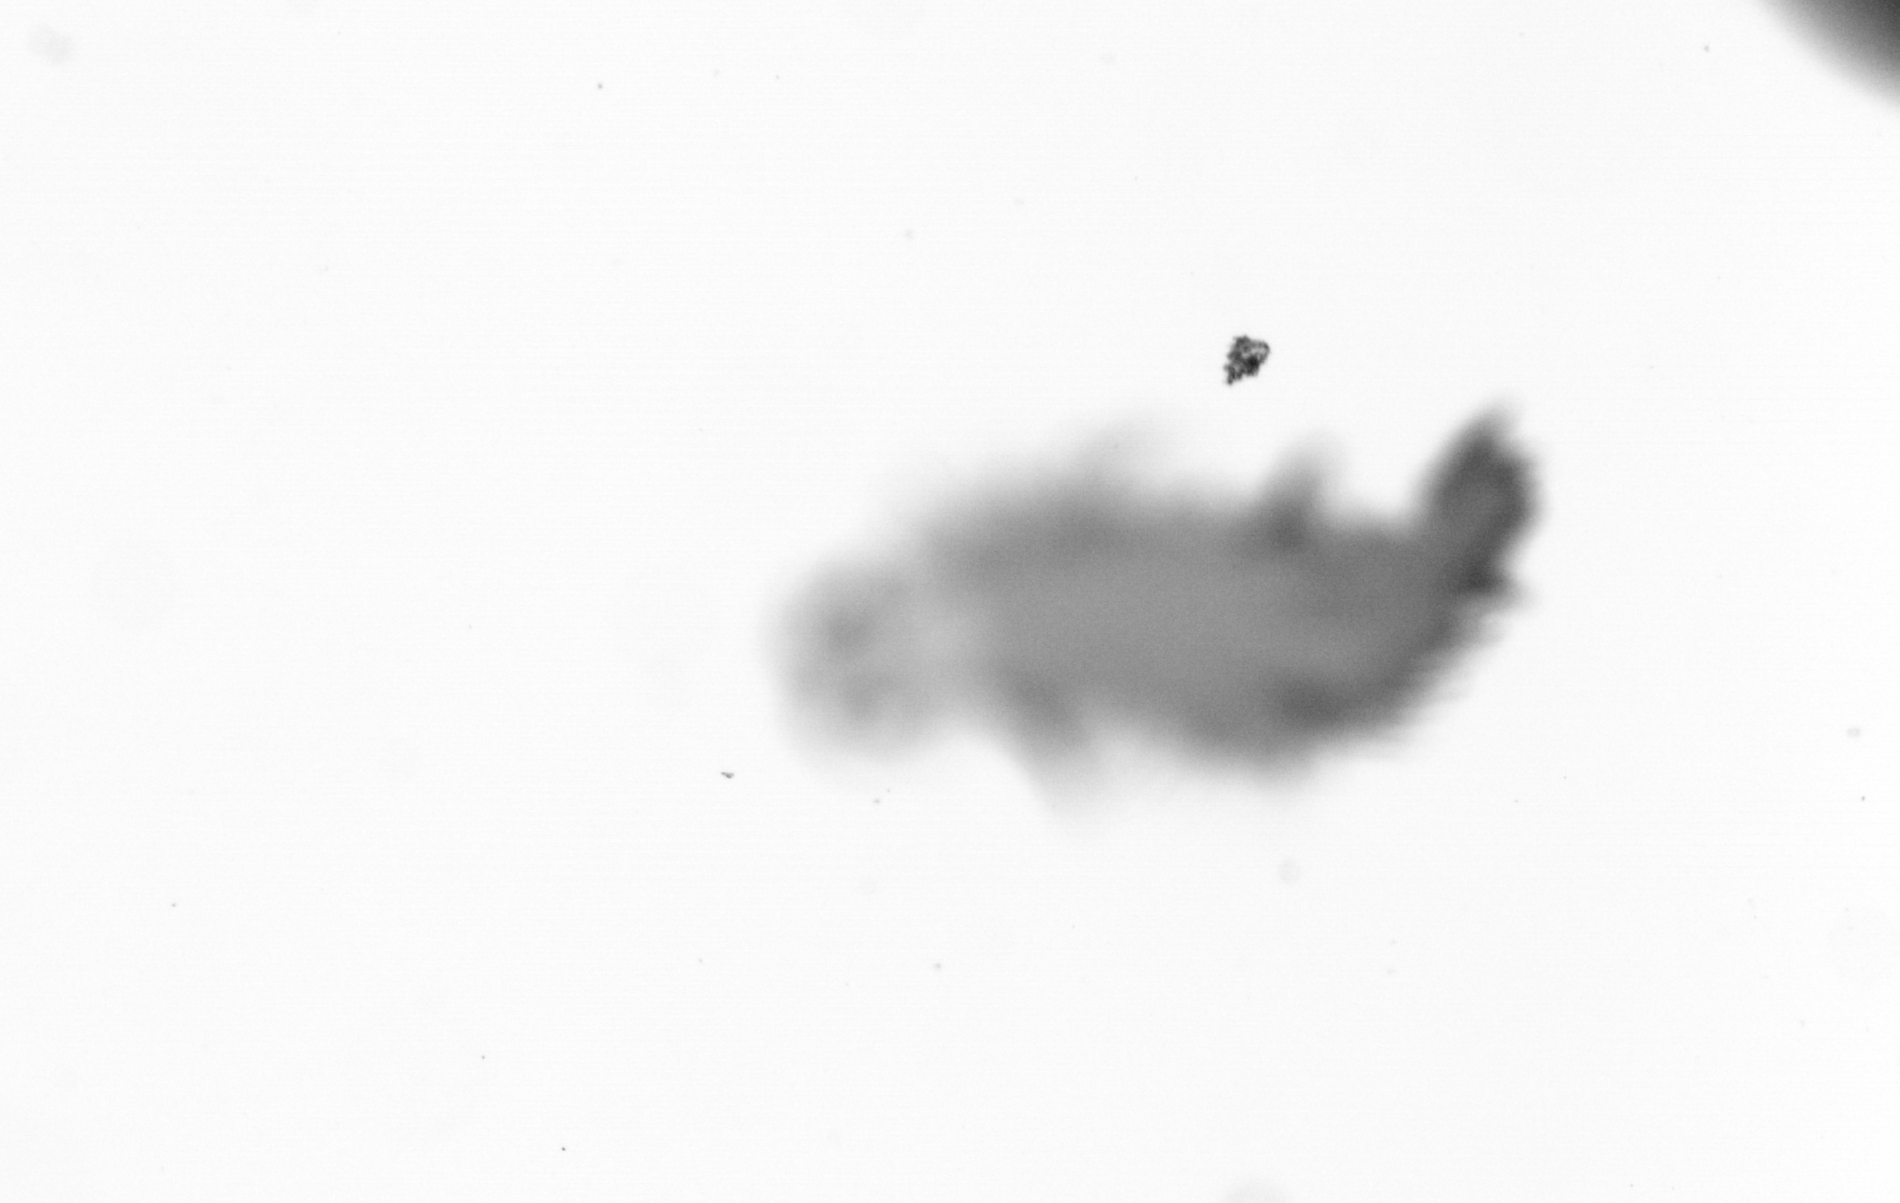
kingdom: Animalia
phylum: Annelida
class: Polychaeta
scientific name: Polychaeta
